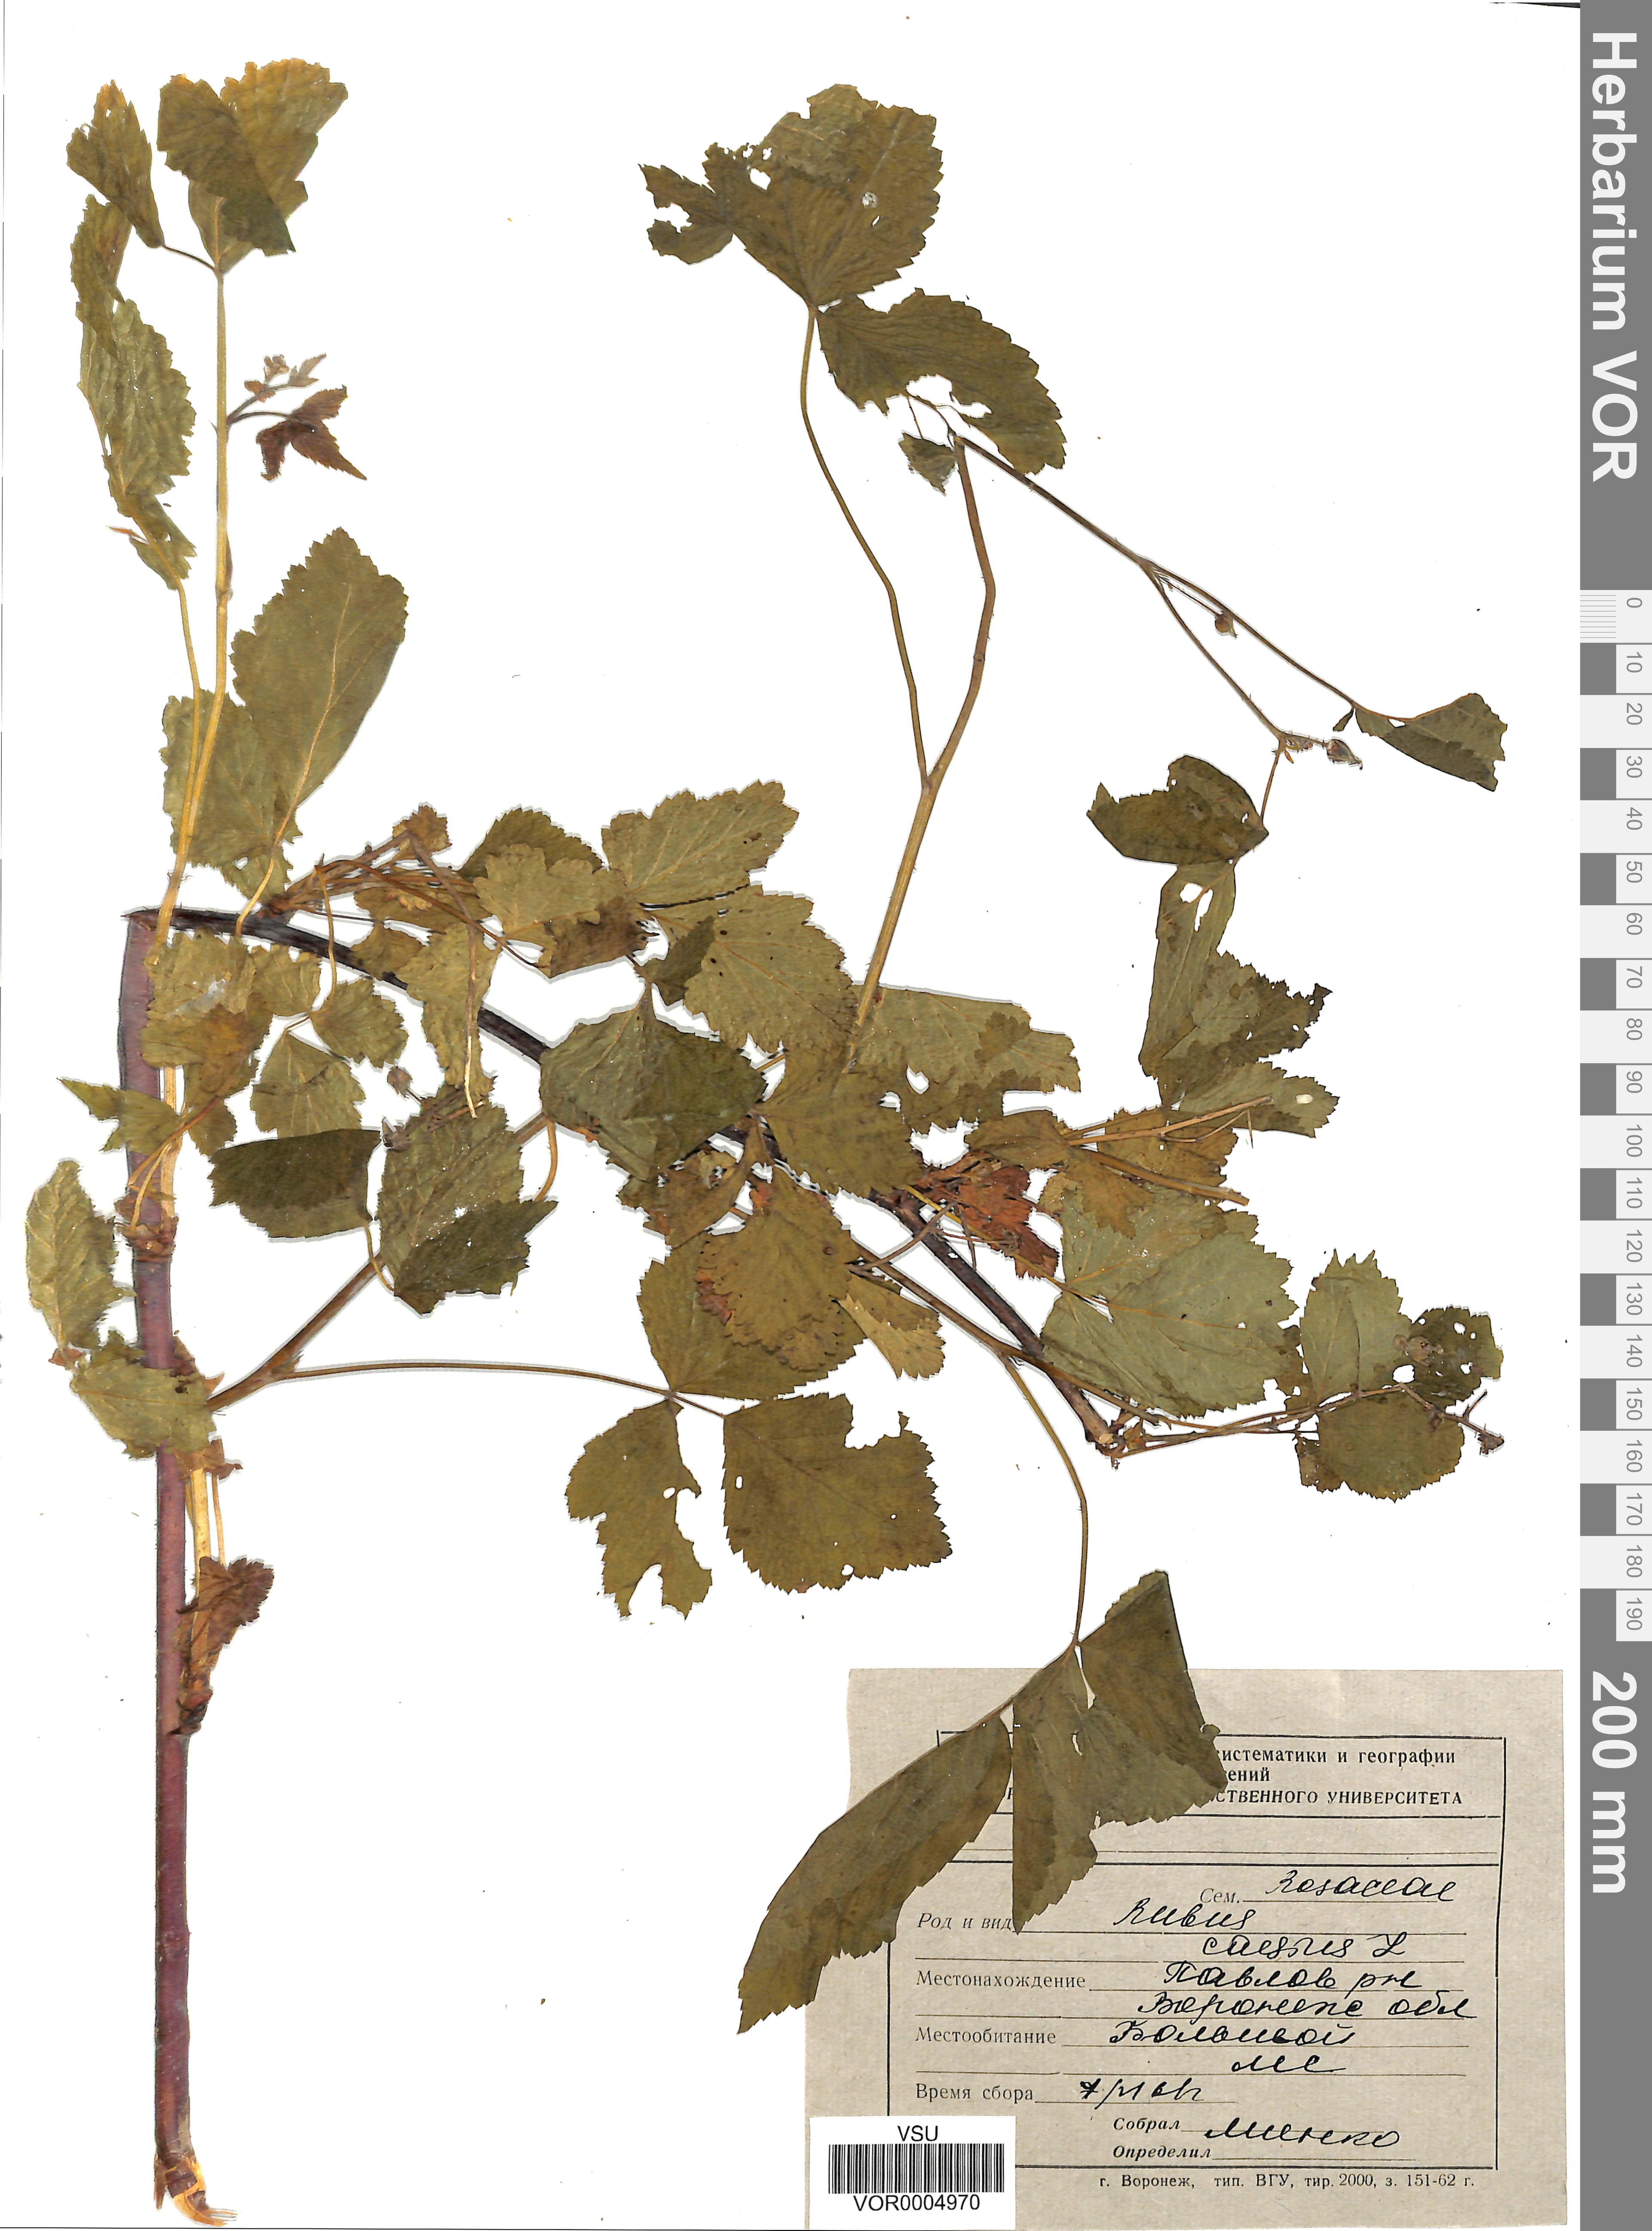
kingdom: Plantae
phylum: Tracheophyta
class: Magnoliopsida
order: Rosales
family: Rosaceae
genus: Rubus
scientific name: Rubus caesius
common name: Dewberry
